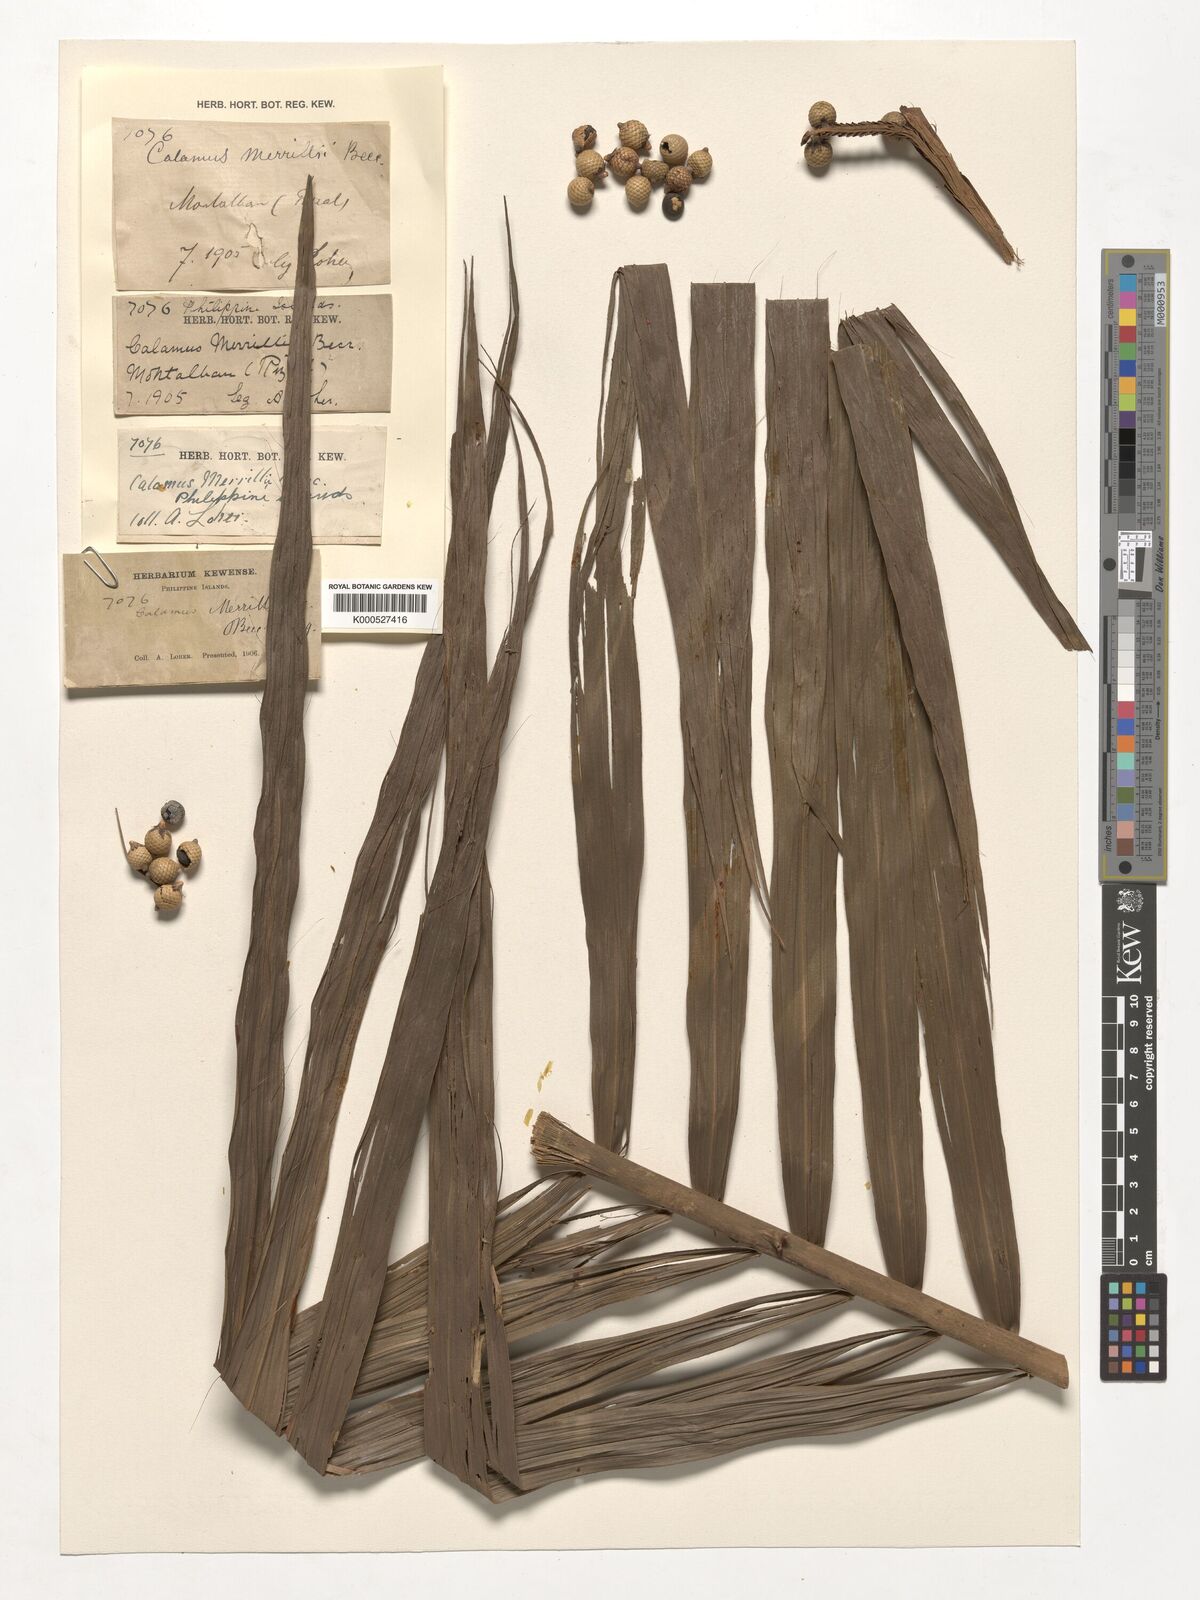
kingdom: Plantae
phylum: Tracheophyta
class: Liliopsida
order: Arecales
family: Arecaceae
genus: Calamus
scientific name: Calamus zollingeri
